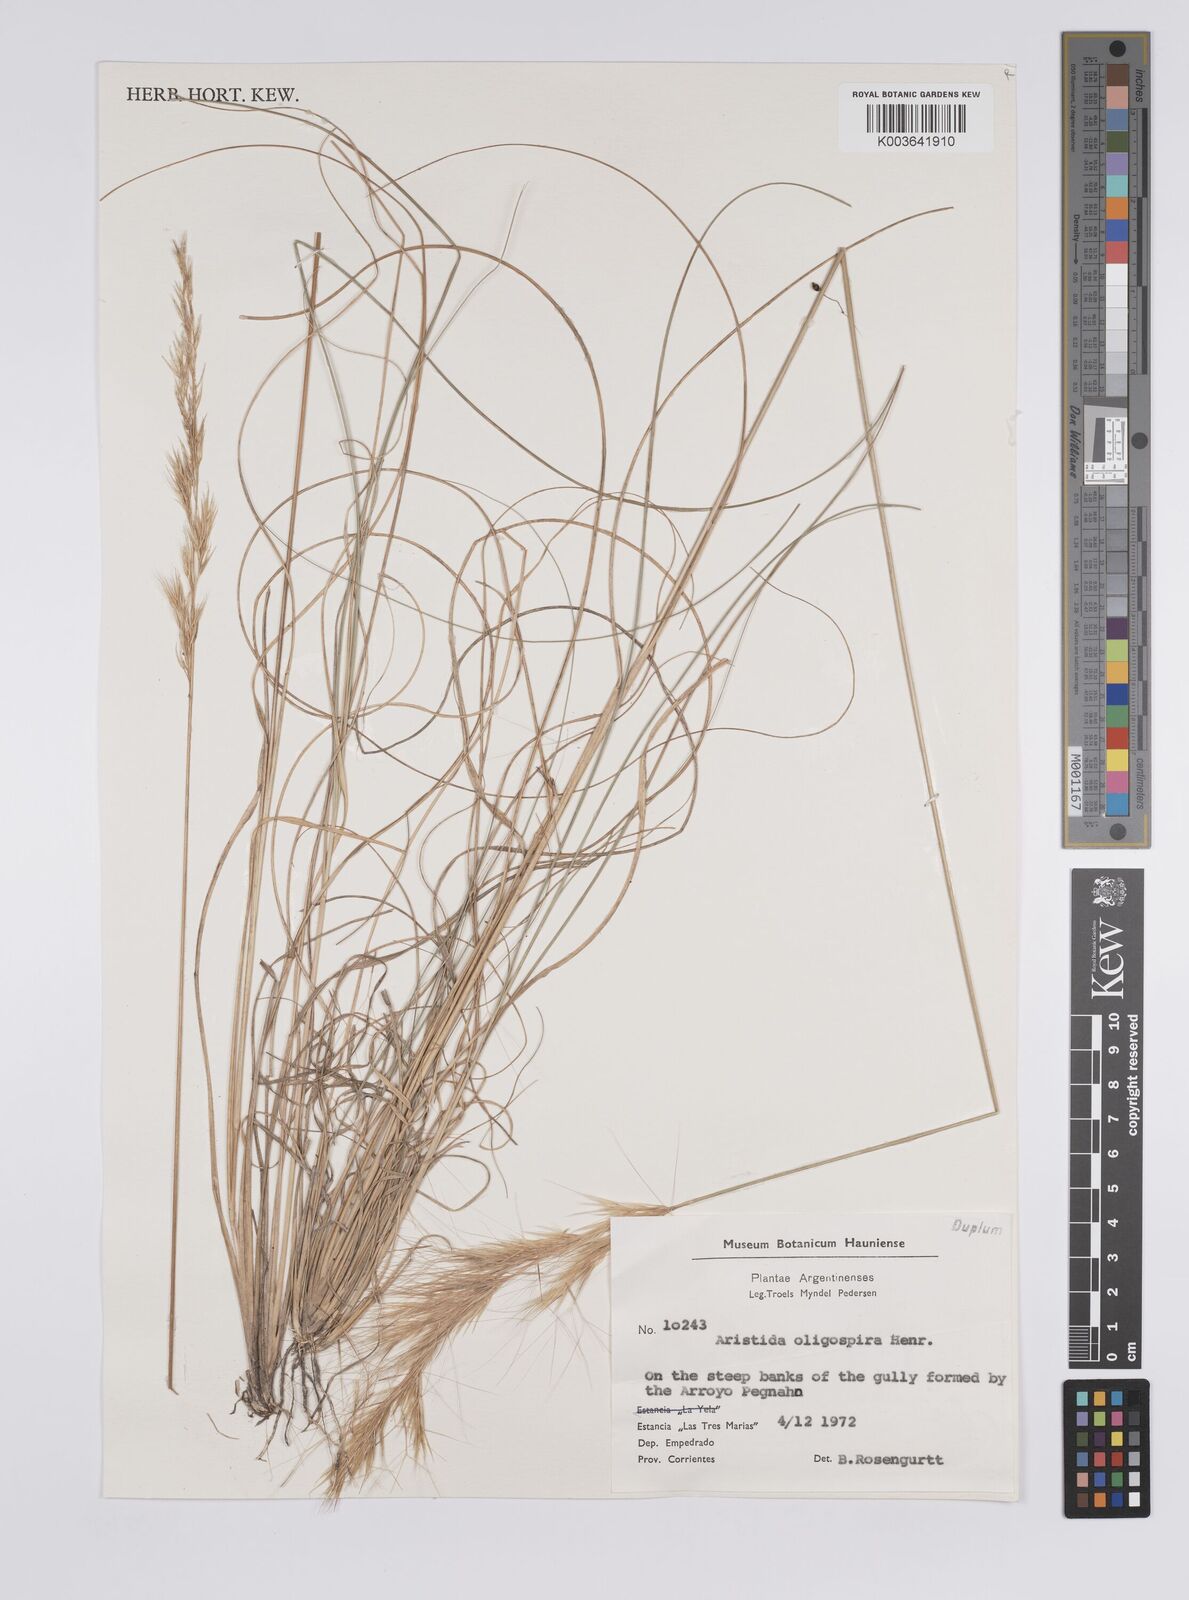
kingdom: Plantae
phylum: Tracheophyta
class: Liliopsida
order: Poales
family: Poaceae
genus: Aristida
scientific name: Aristida oligospira
